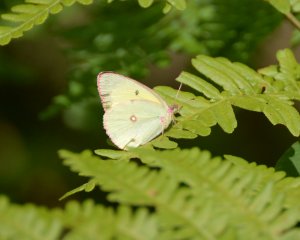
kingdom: Animalia
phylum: Arthropoda
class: Insecta
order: Lepidoptera
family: Pieridae
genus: Colias
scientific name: Colias interior
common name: Pink-edged Sulphur
